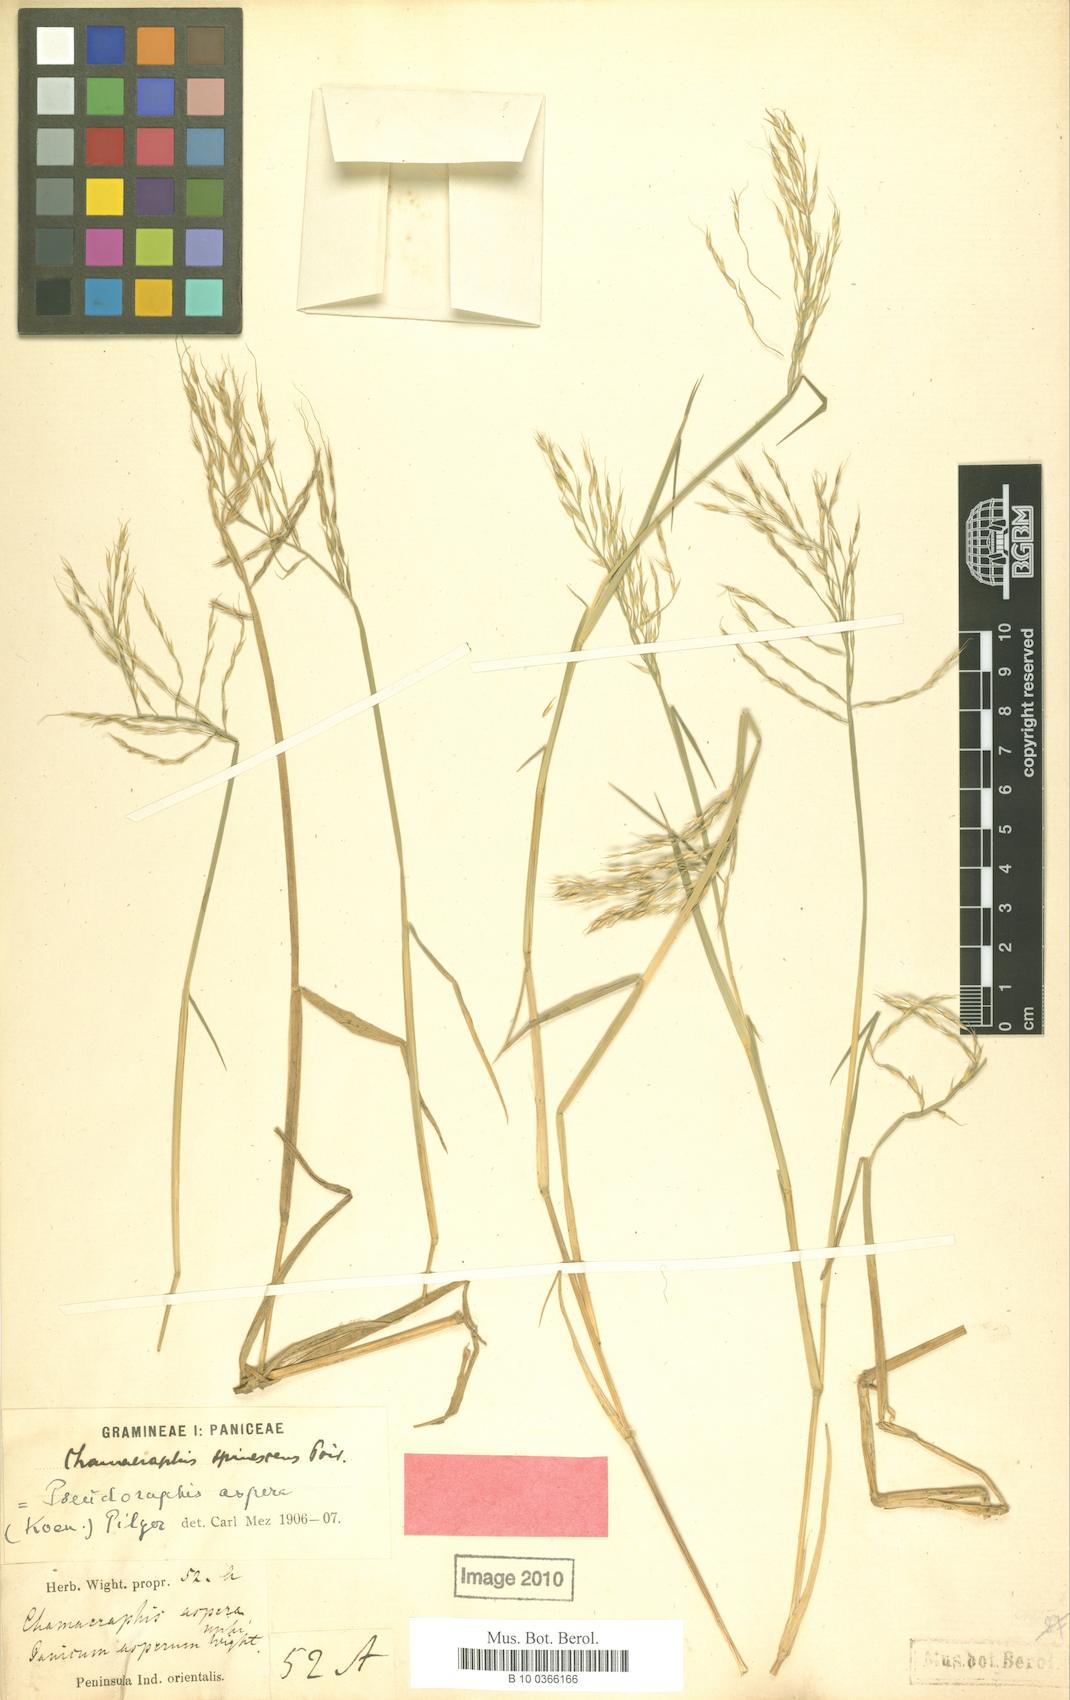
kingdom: Plantae
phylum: Tracheophyta
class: Liliopsida
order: Poales
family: Poaceae
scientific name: Poaceae
